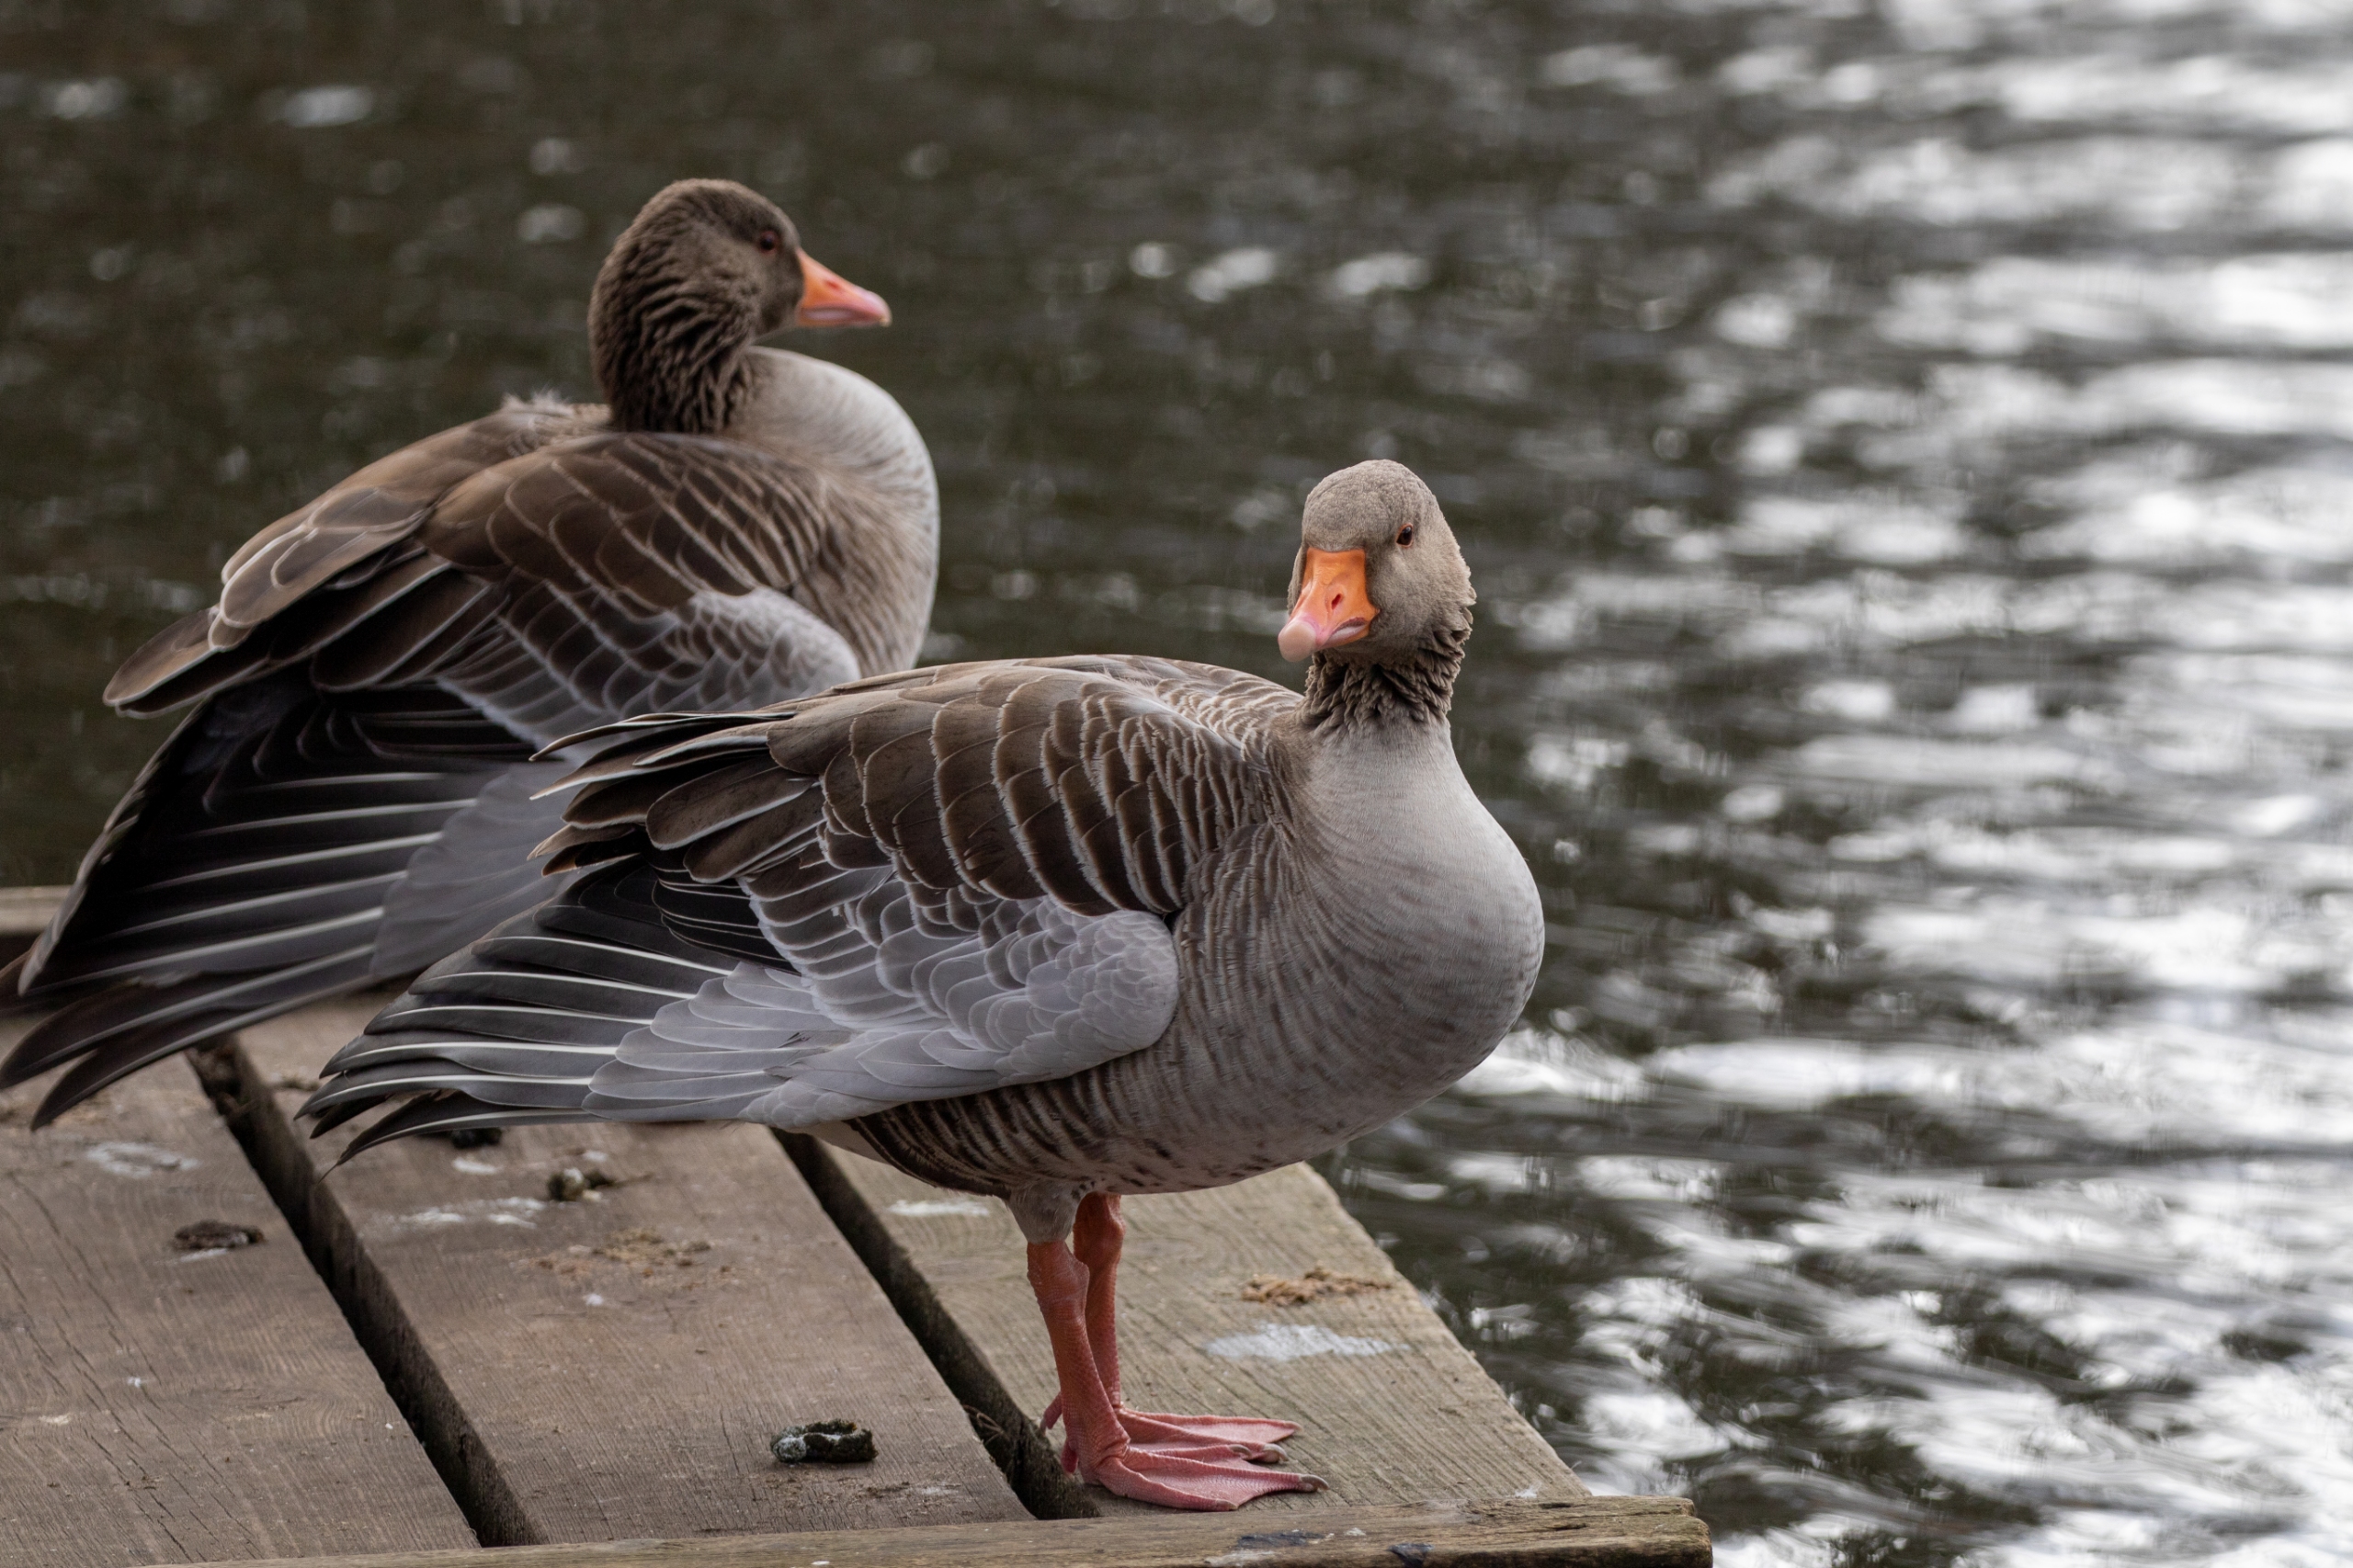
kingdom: Animalia
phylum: Chordata
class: Aves
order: Anseriformes
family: Anatidae
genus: Anser
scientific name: Anser anser
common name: Grågås
